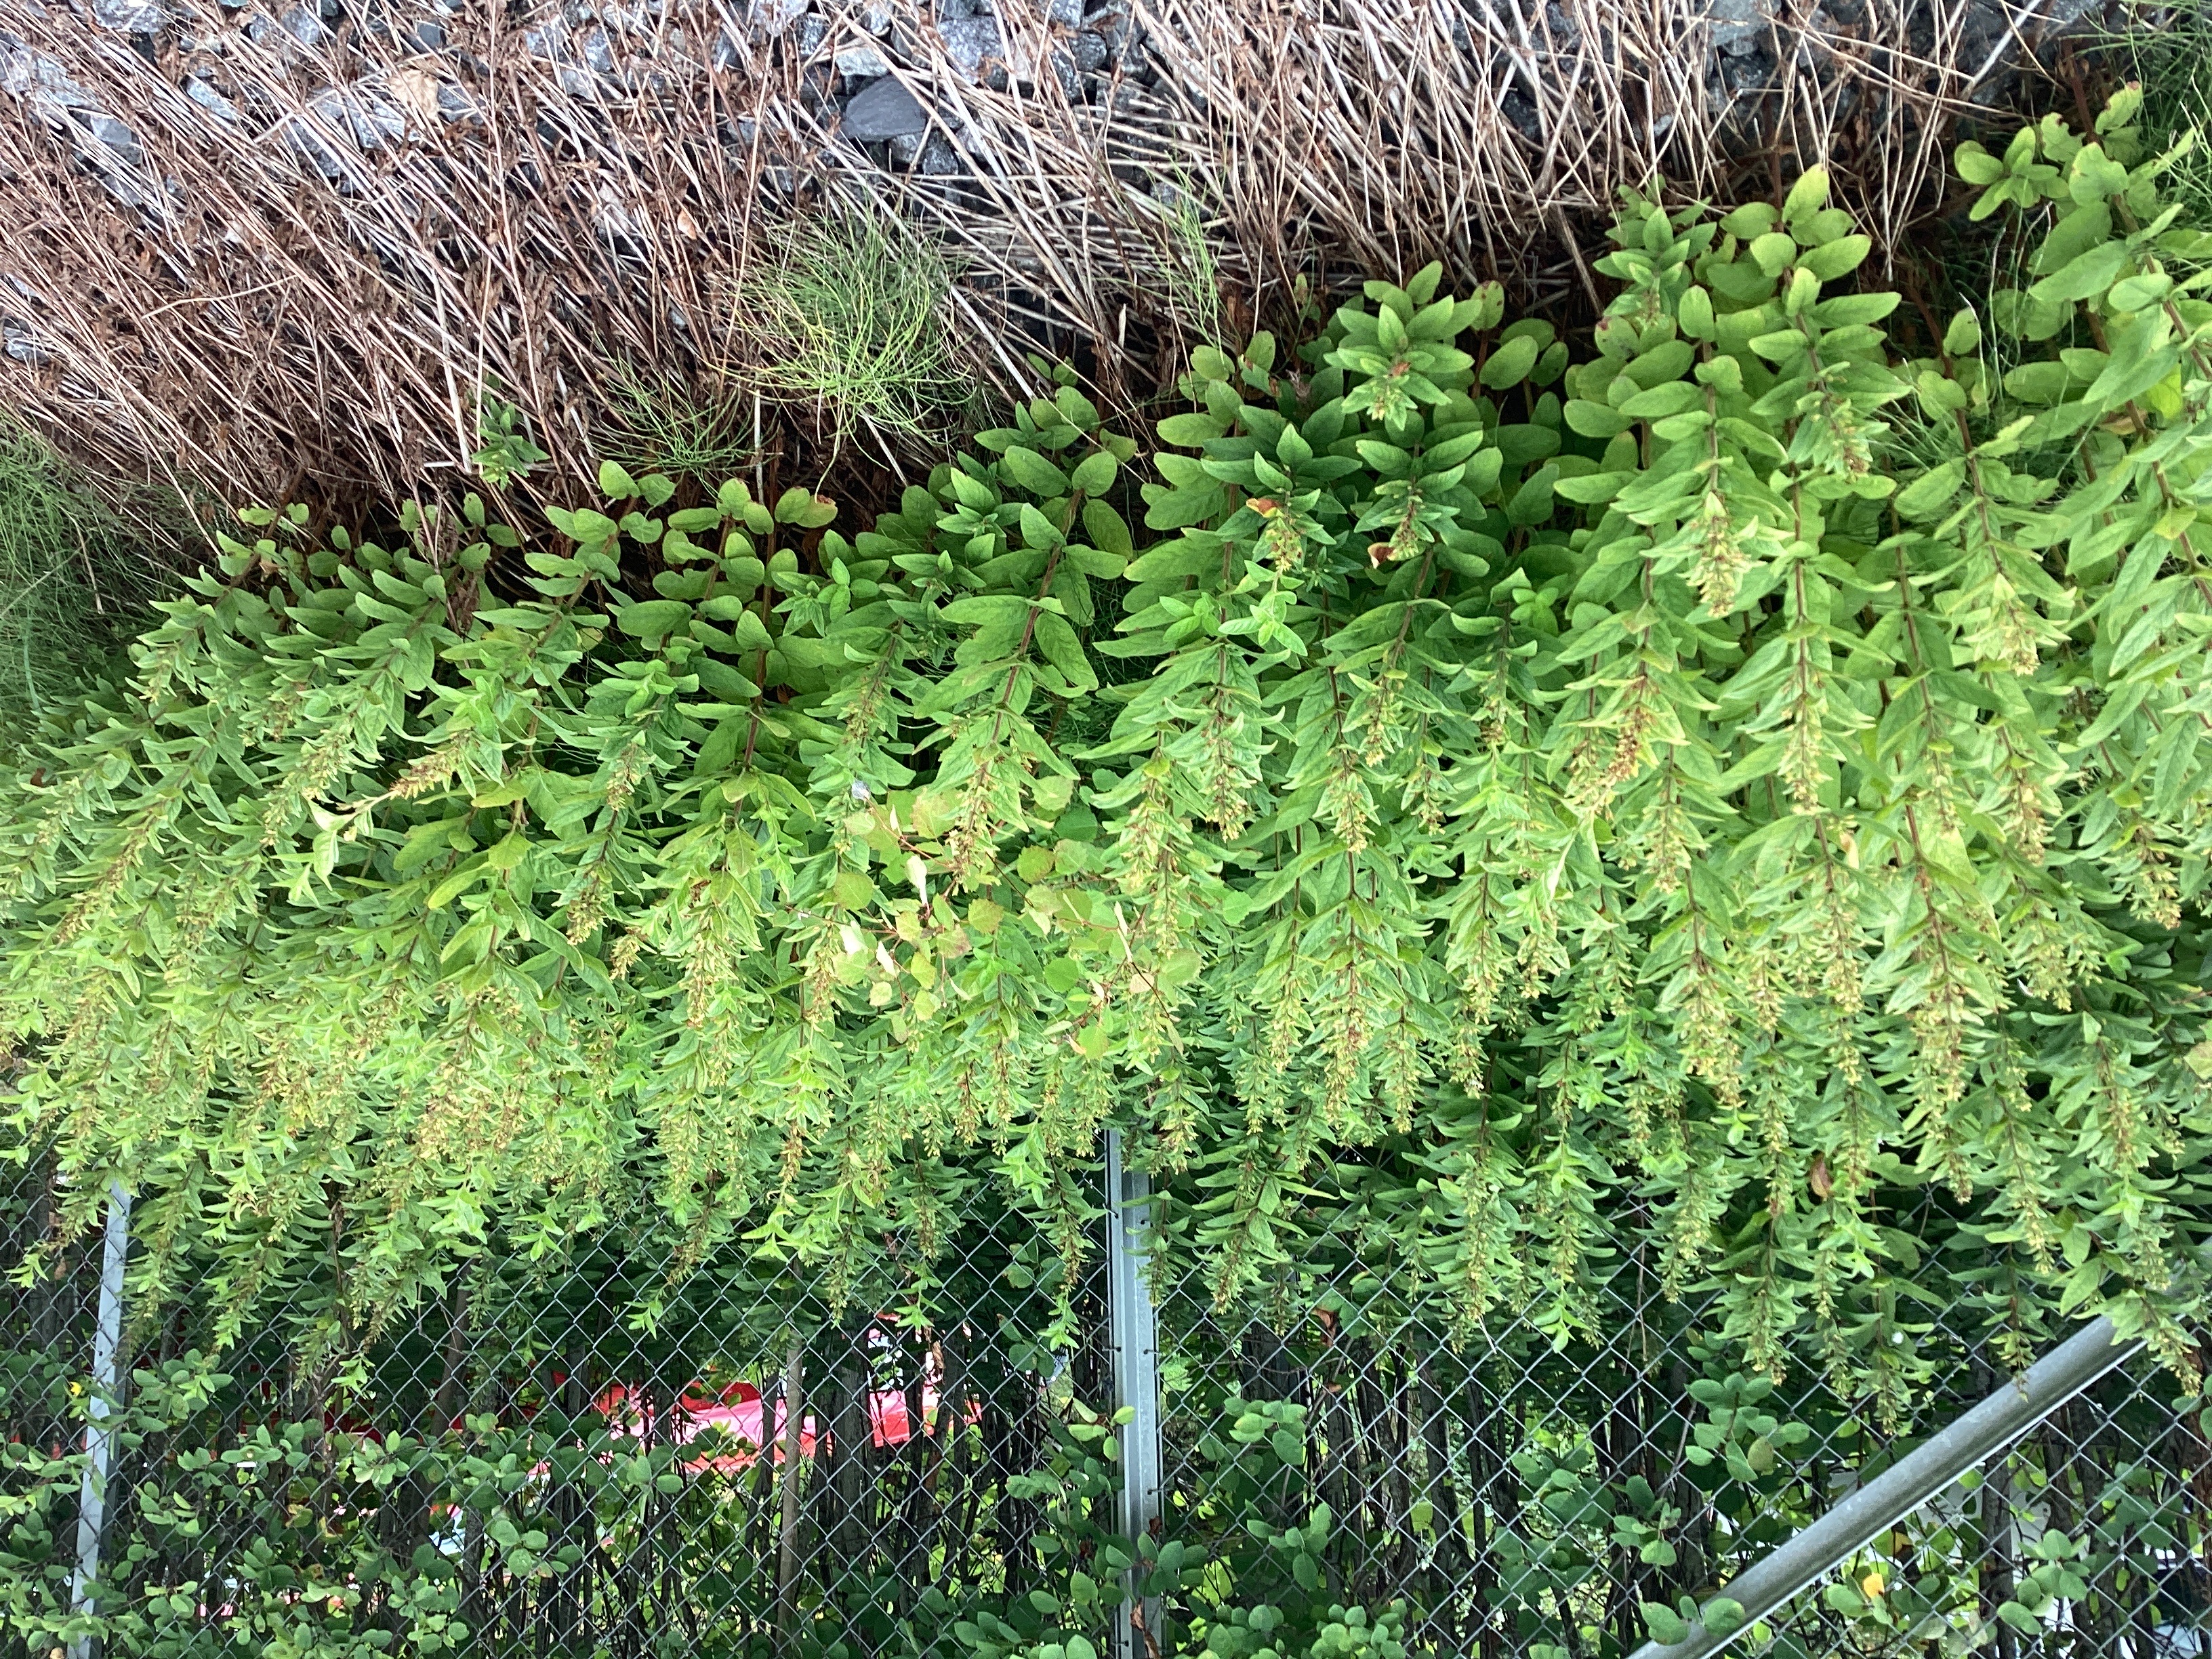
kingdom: Plantae
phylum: Tracheophyta
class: Magnoliopsida
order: Ericales
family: Primulaceae
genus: Lysimachia
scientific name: Lysimachia punctata
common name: fagerfredløs
